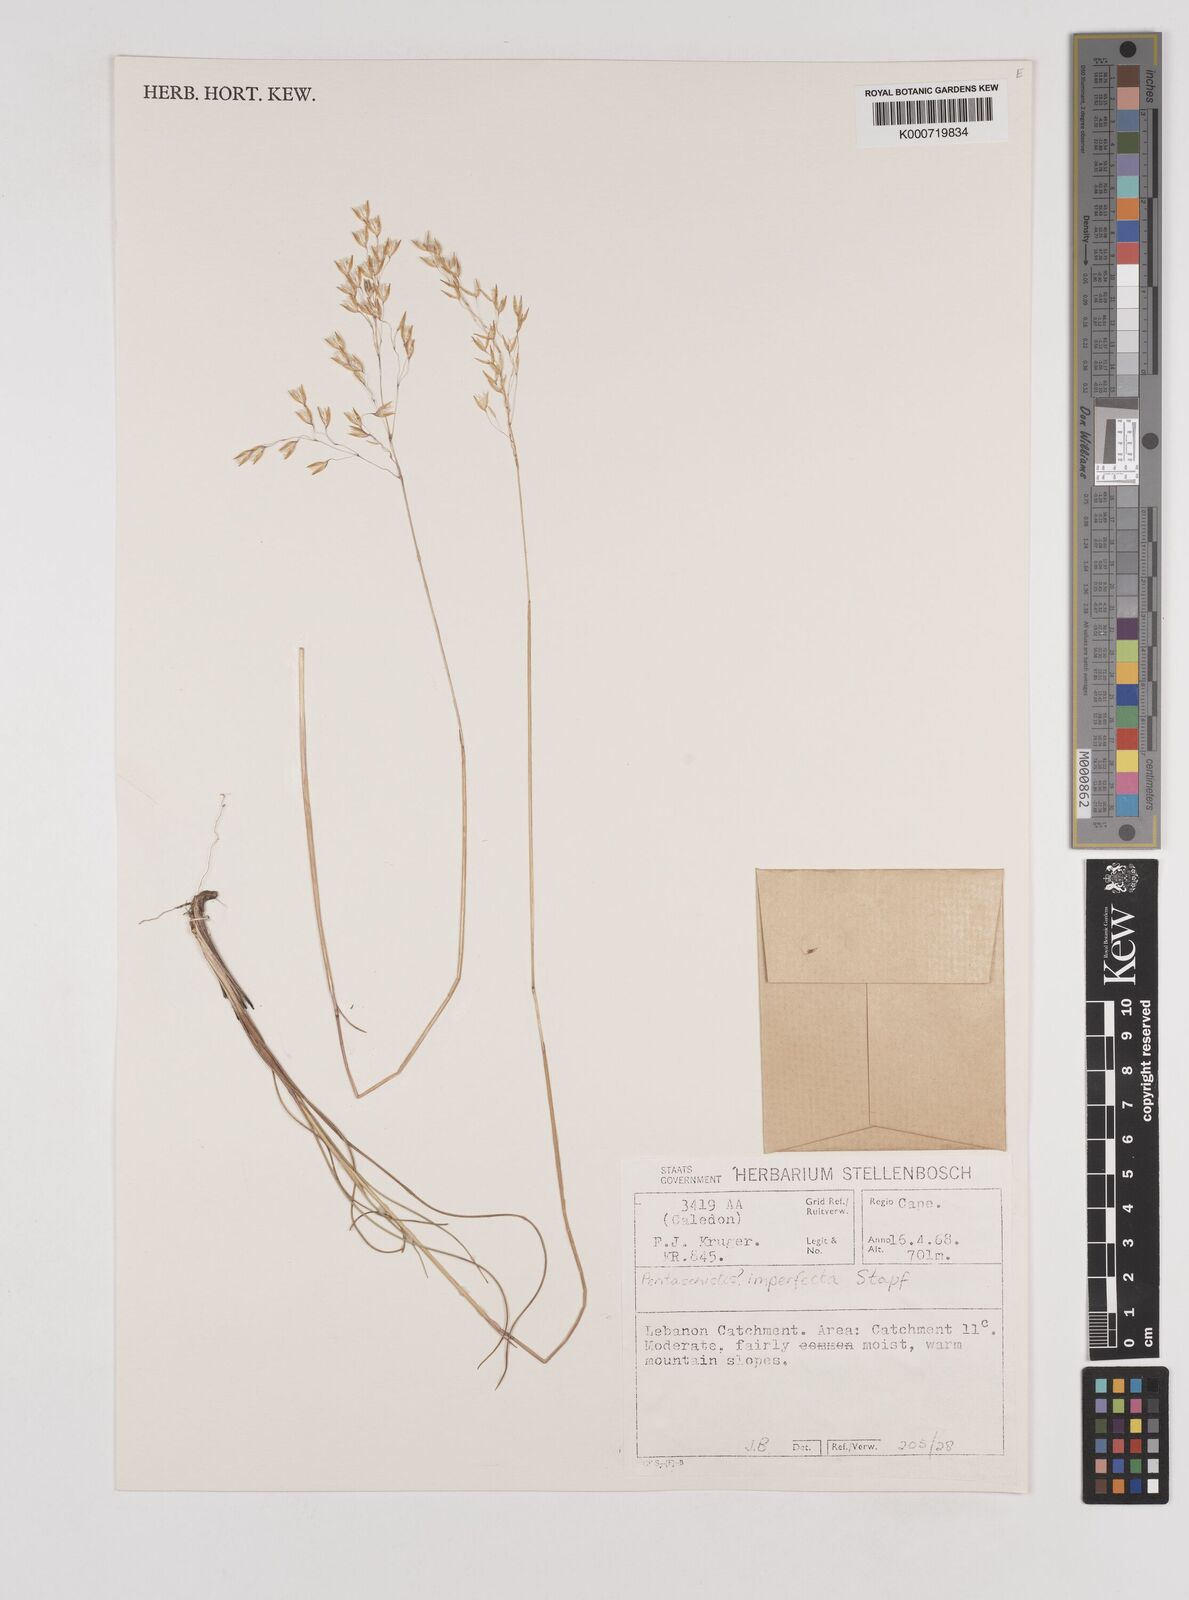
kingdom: Plantae
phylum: Tracheophyta
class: Liliopsida
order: Poales
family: Poaceae
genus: Pentaschistis
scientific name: Pentaschistis
